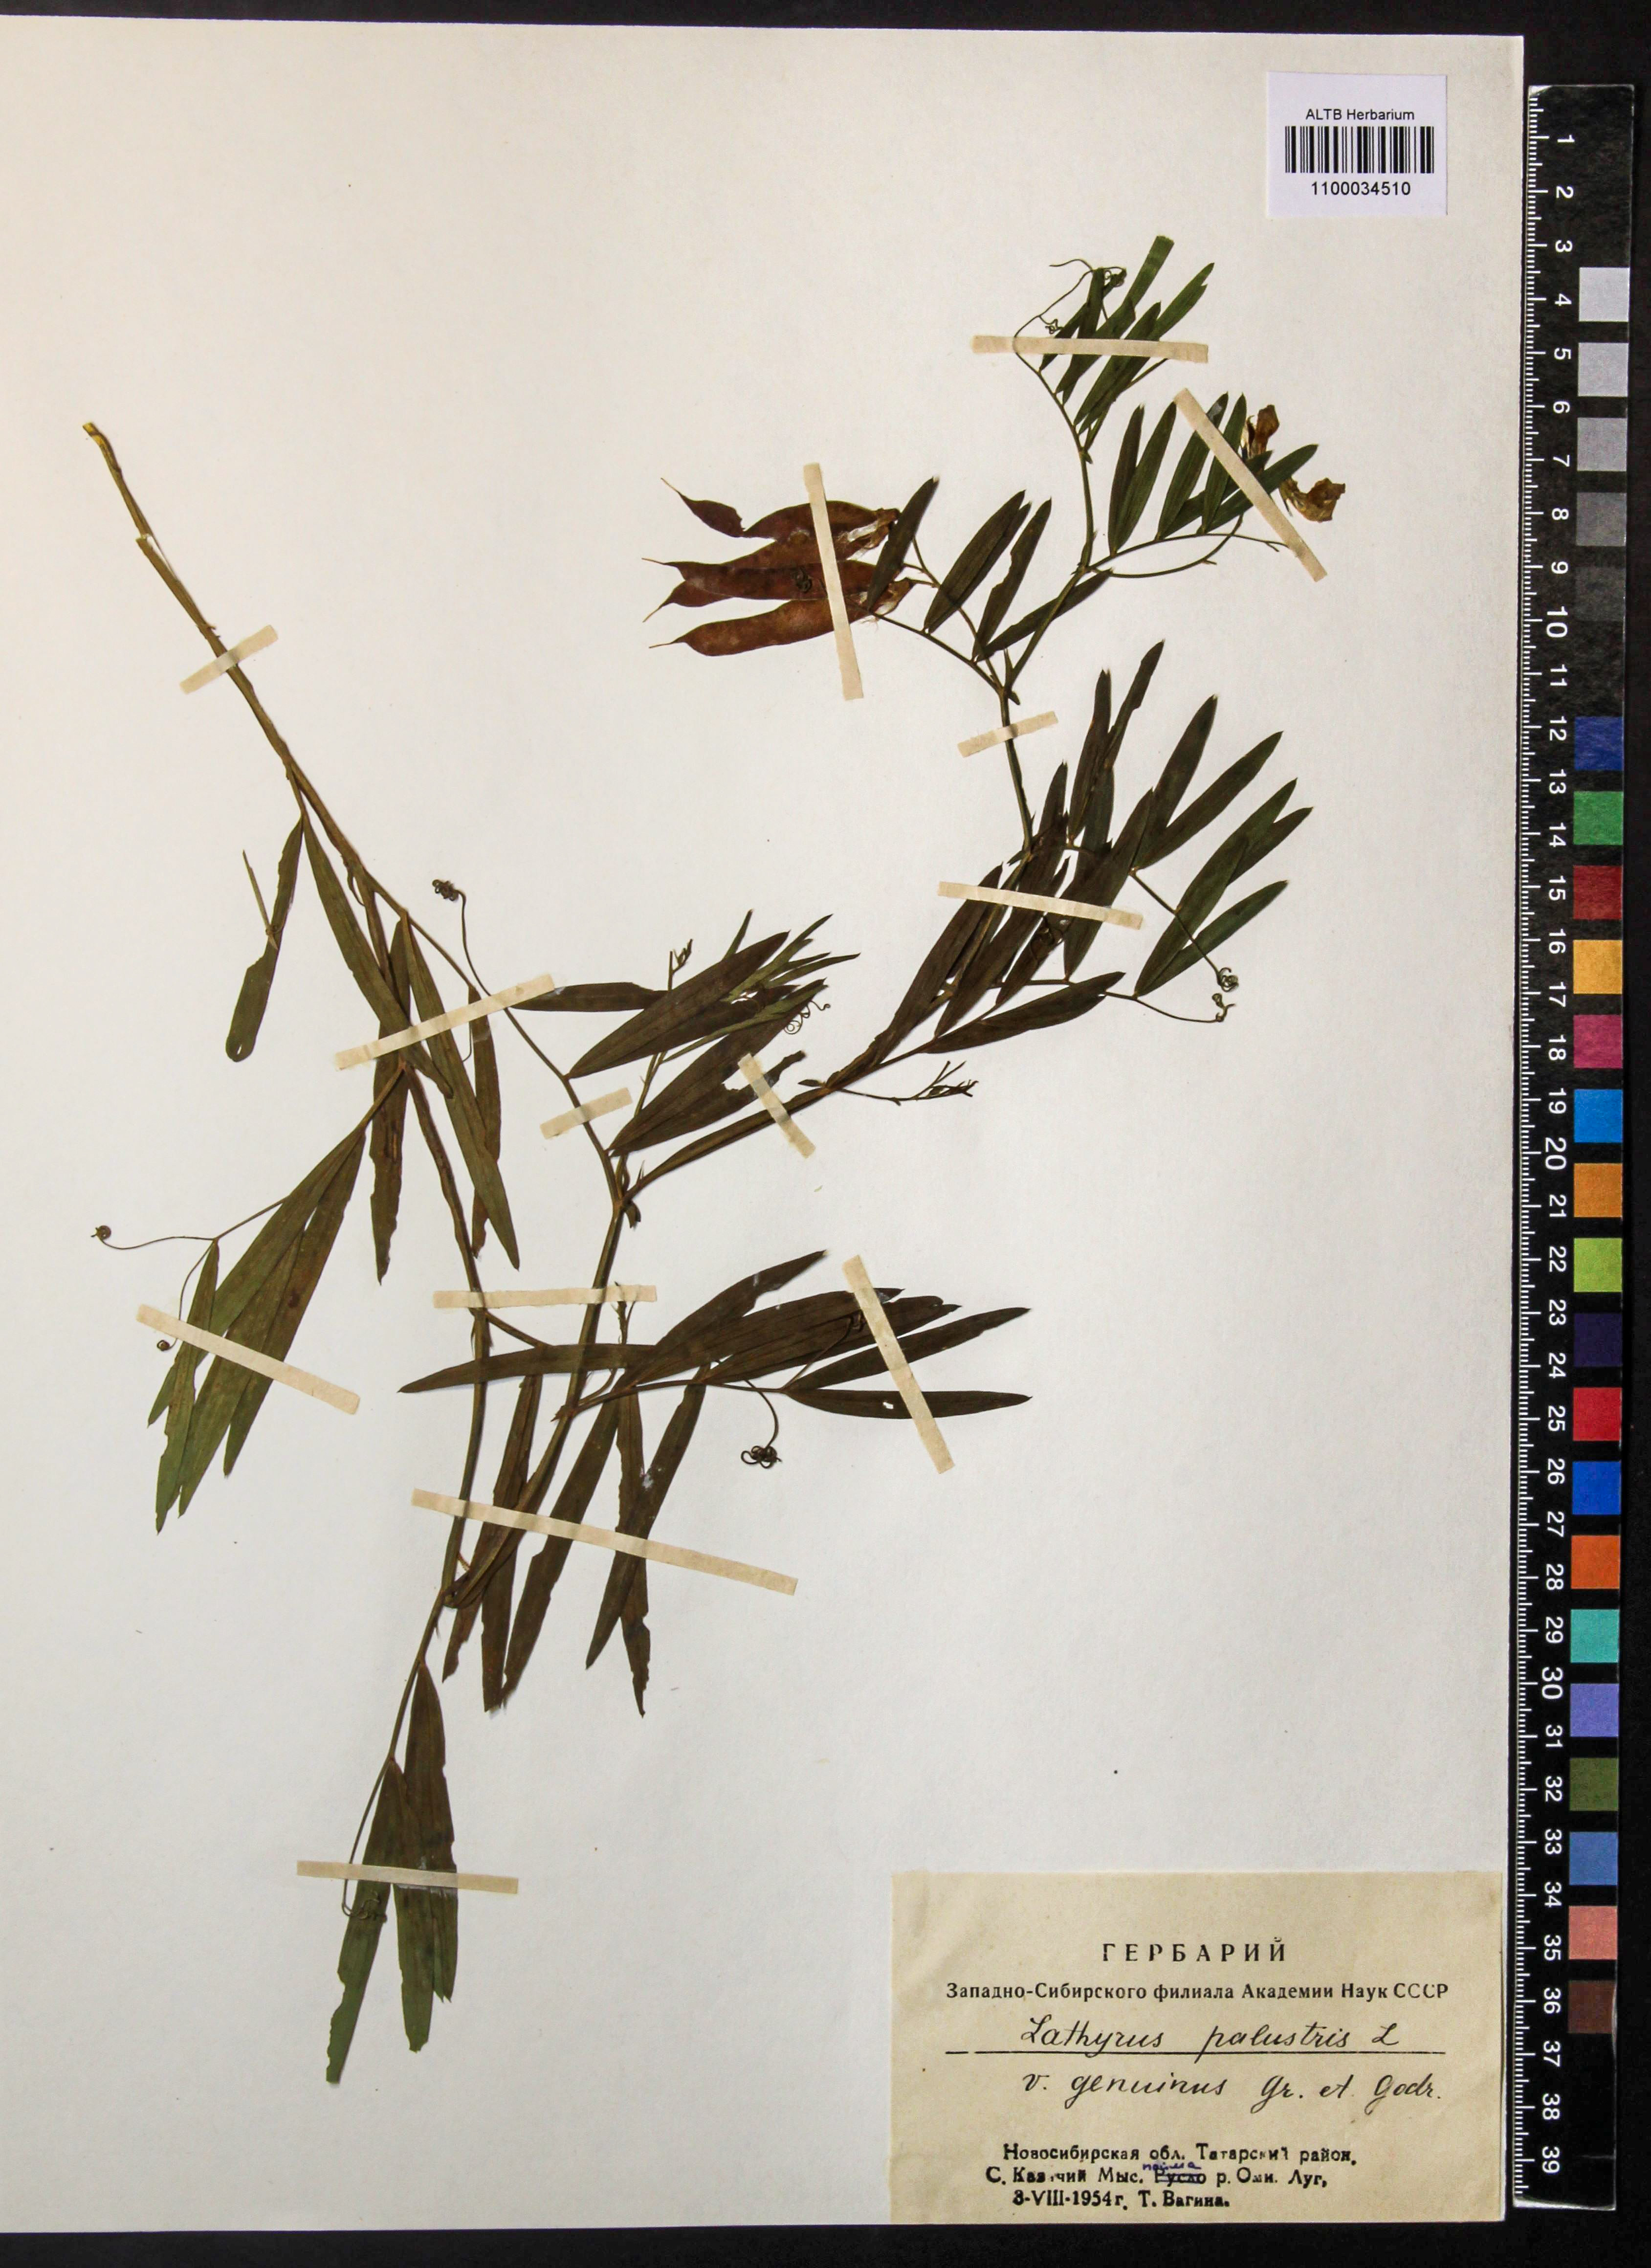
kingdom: Plantae
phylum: Tracheophyta
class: Magnoliopsida
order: Fabales
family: Fabaceae
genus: Lathyrus
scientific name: Lathyrus palustris
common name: Marsh pea
